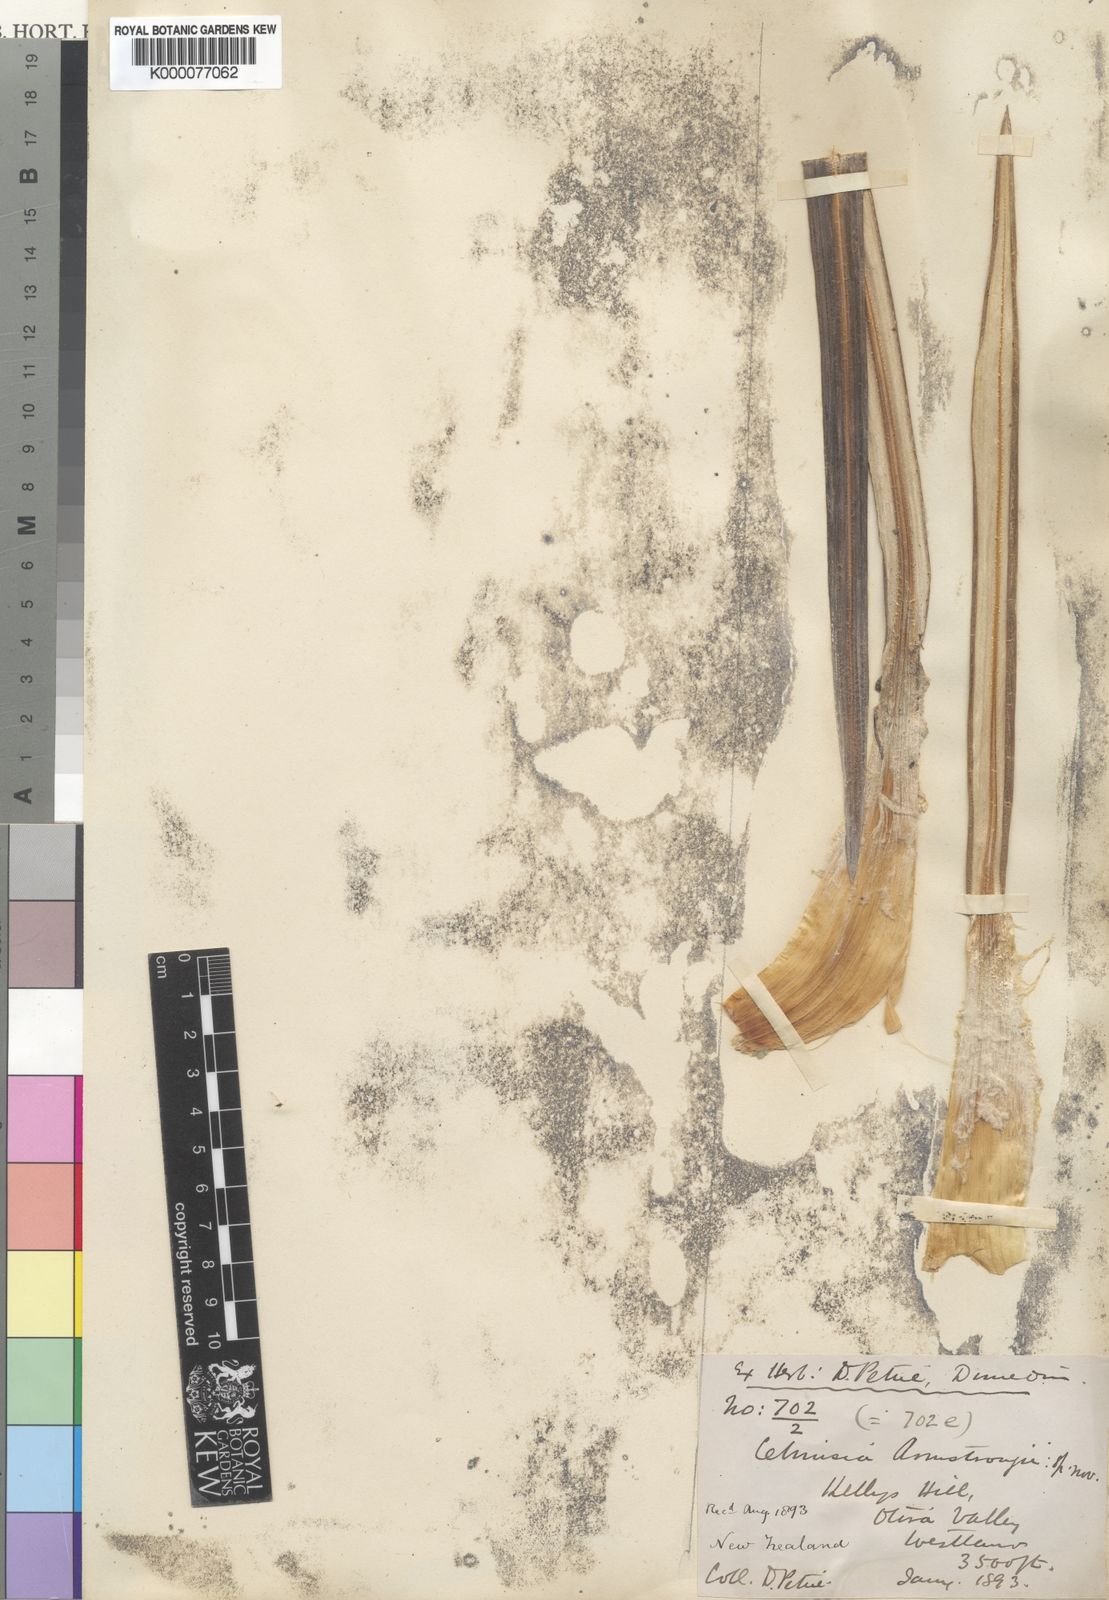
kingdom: Plantae
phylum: Tracheophyta
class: Magnoliopsida
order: Asterales
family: Asteraceae
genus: Celmisia
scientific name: Celmisia armstrongii
